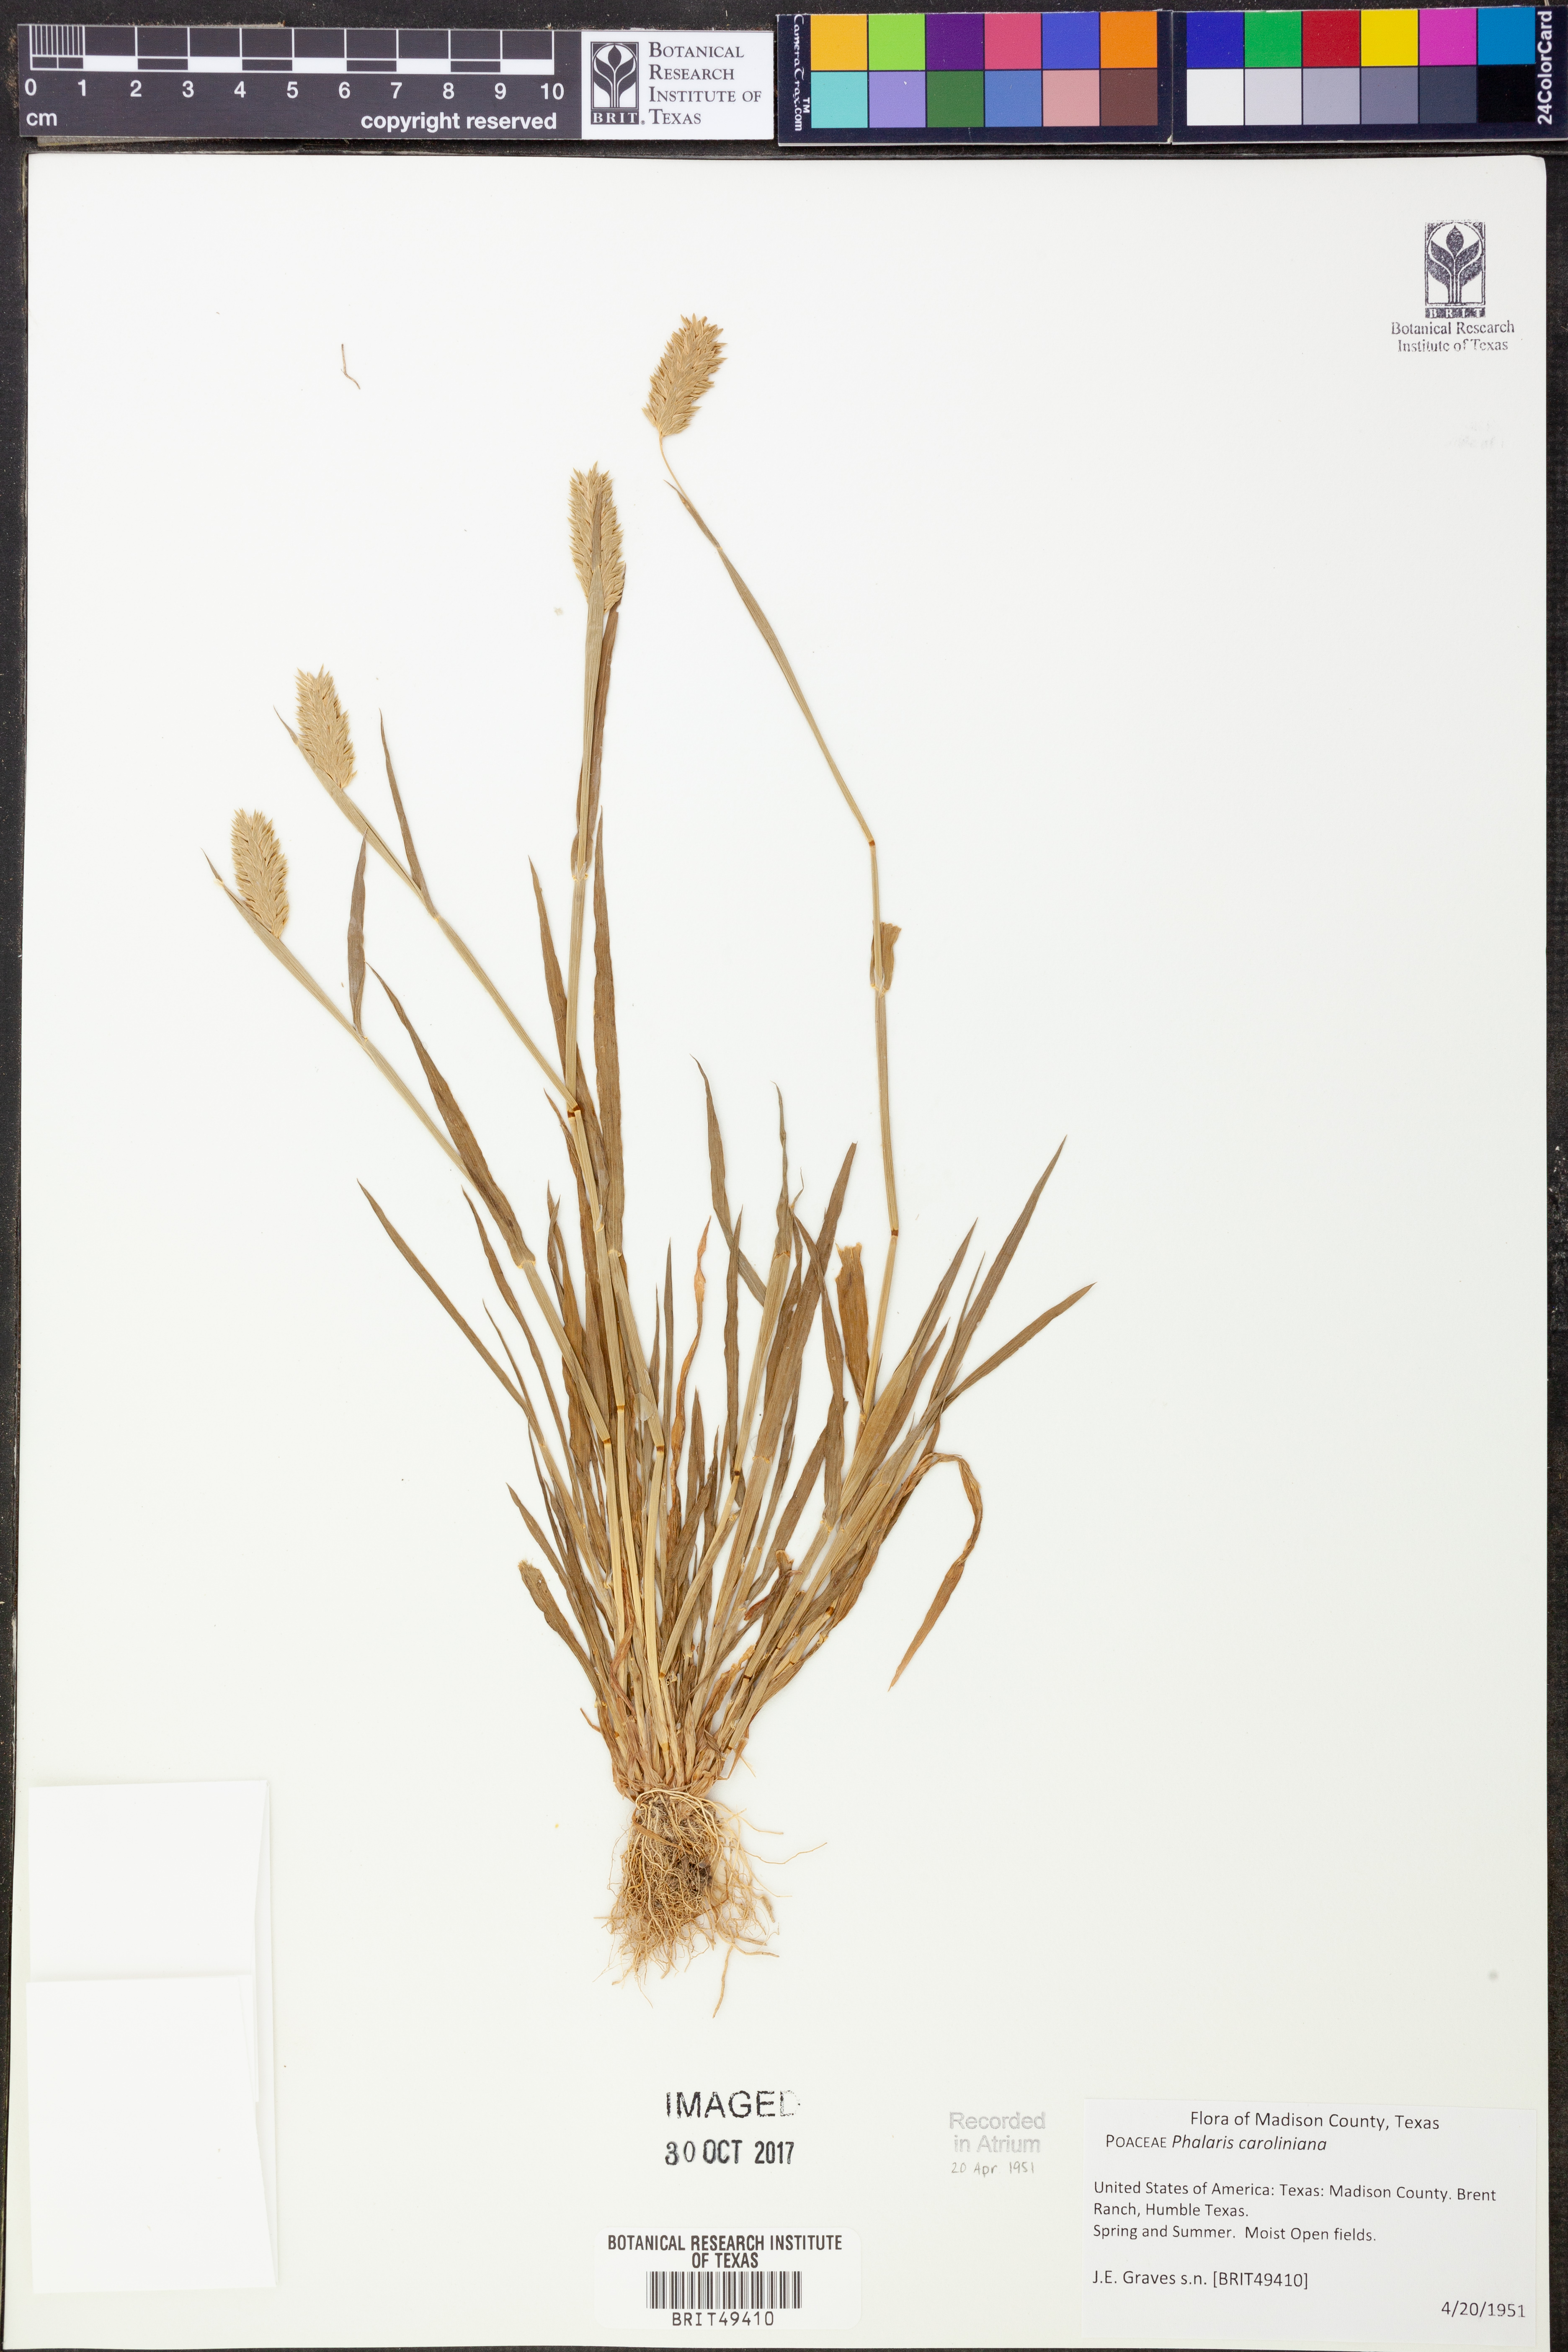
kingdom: Plantae
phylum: Tracheophyta
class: Liliopsida
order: Poales
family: Poaceae
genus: Phalaris
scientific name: Phalaris caroliniana
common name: May grass
